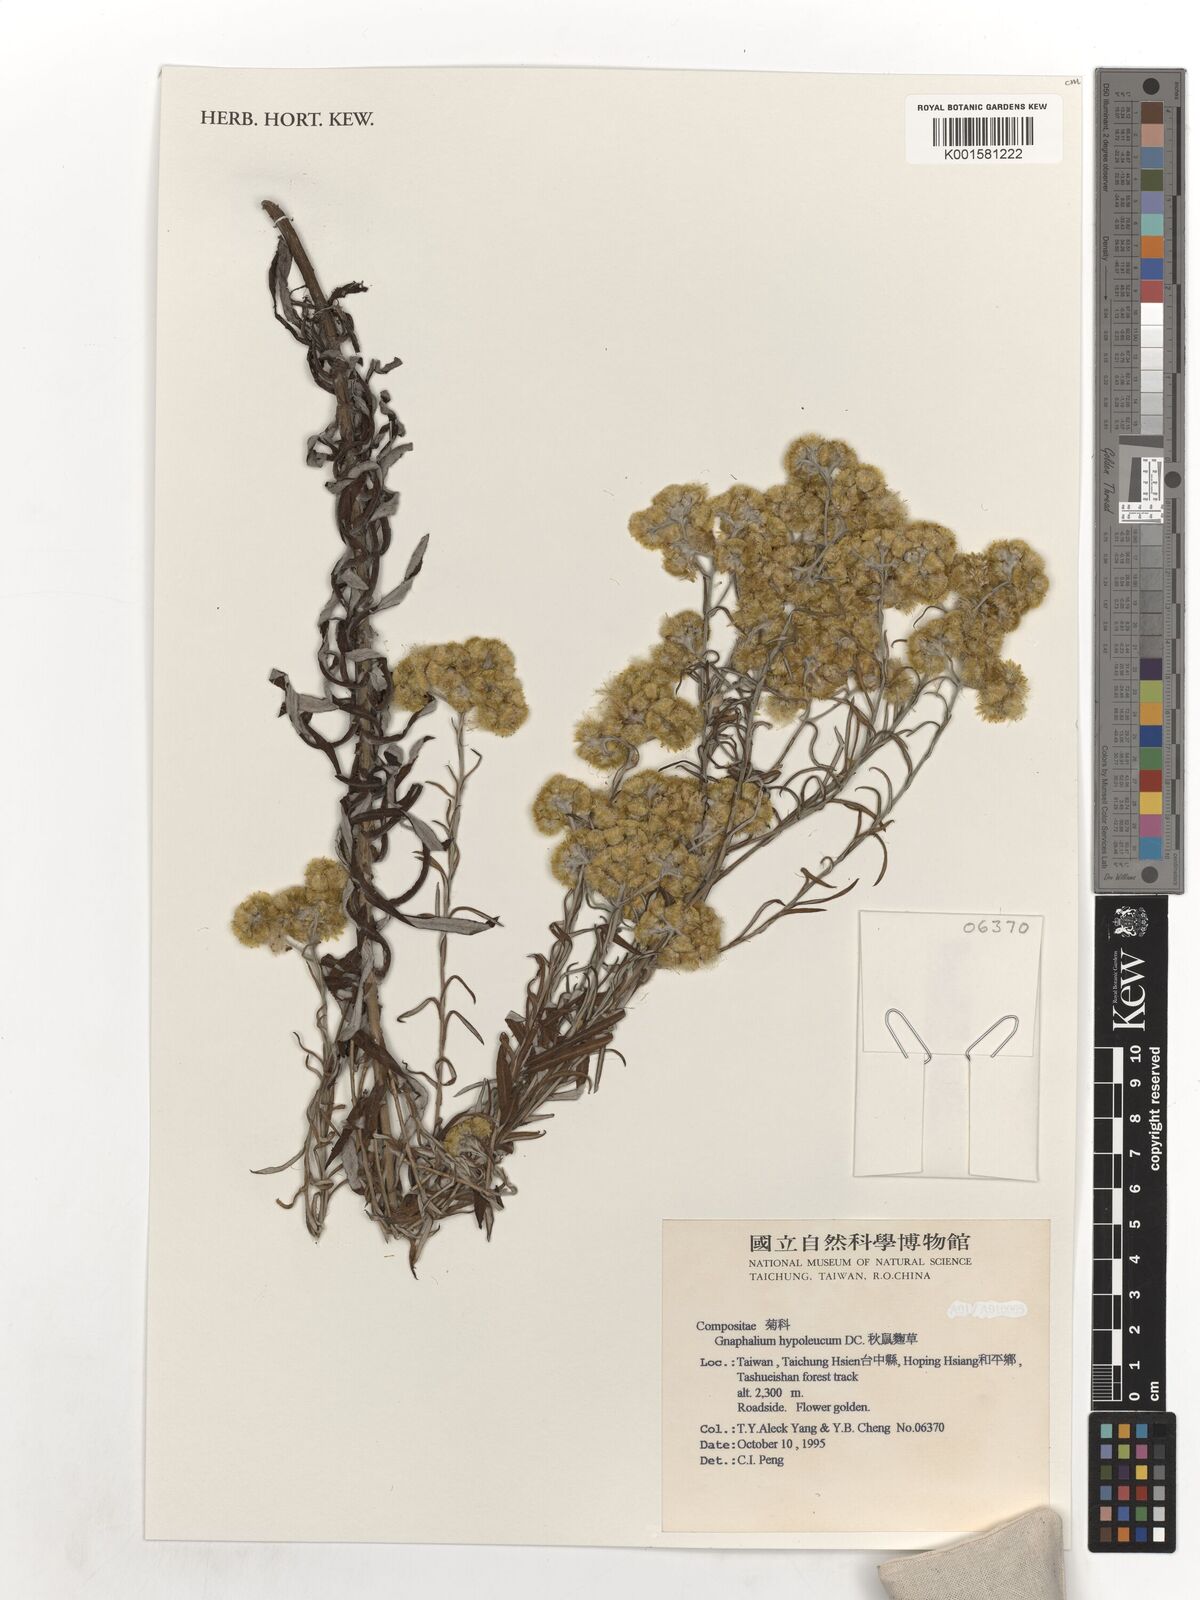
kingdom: Plantae
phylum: Tracheophyta
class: Magnoliopsida
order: Asterales
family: Asteraceae
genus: Pseudognaphalium
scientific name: Pseudognaphalium hypoleucum
